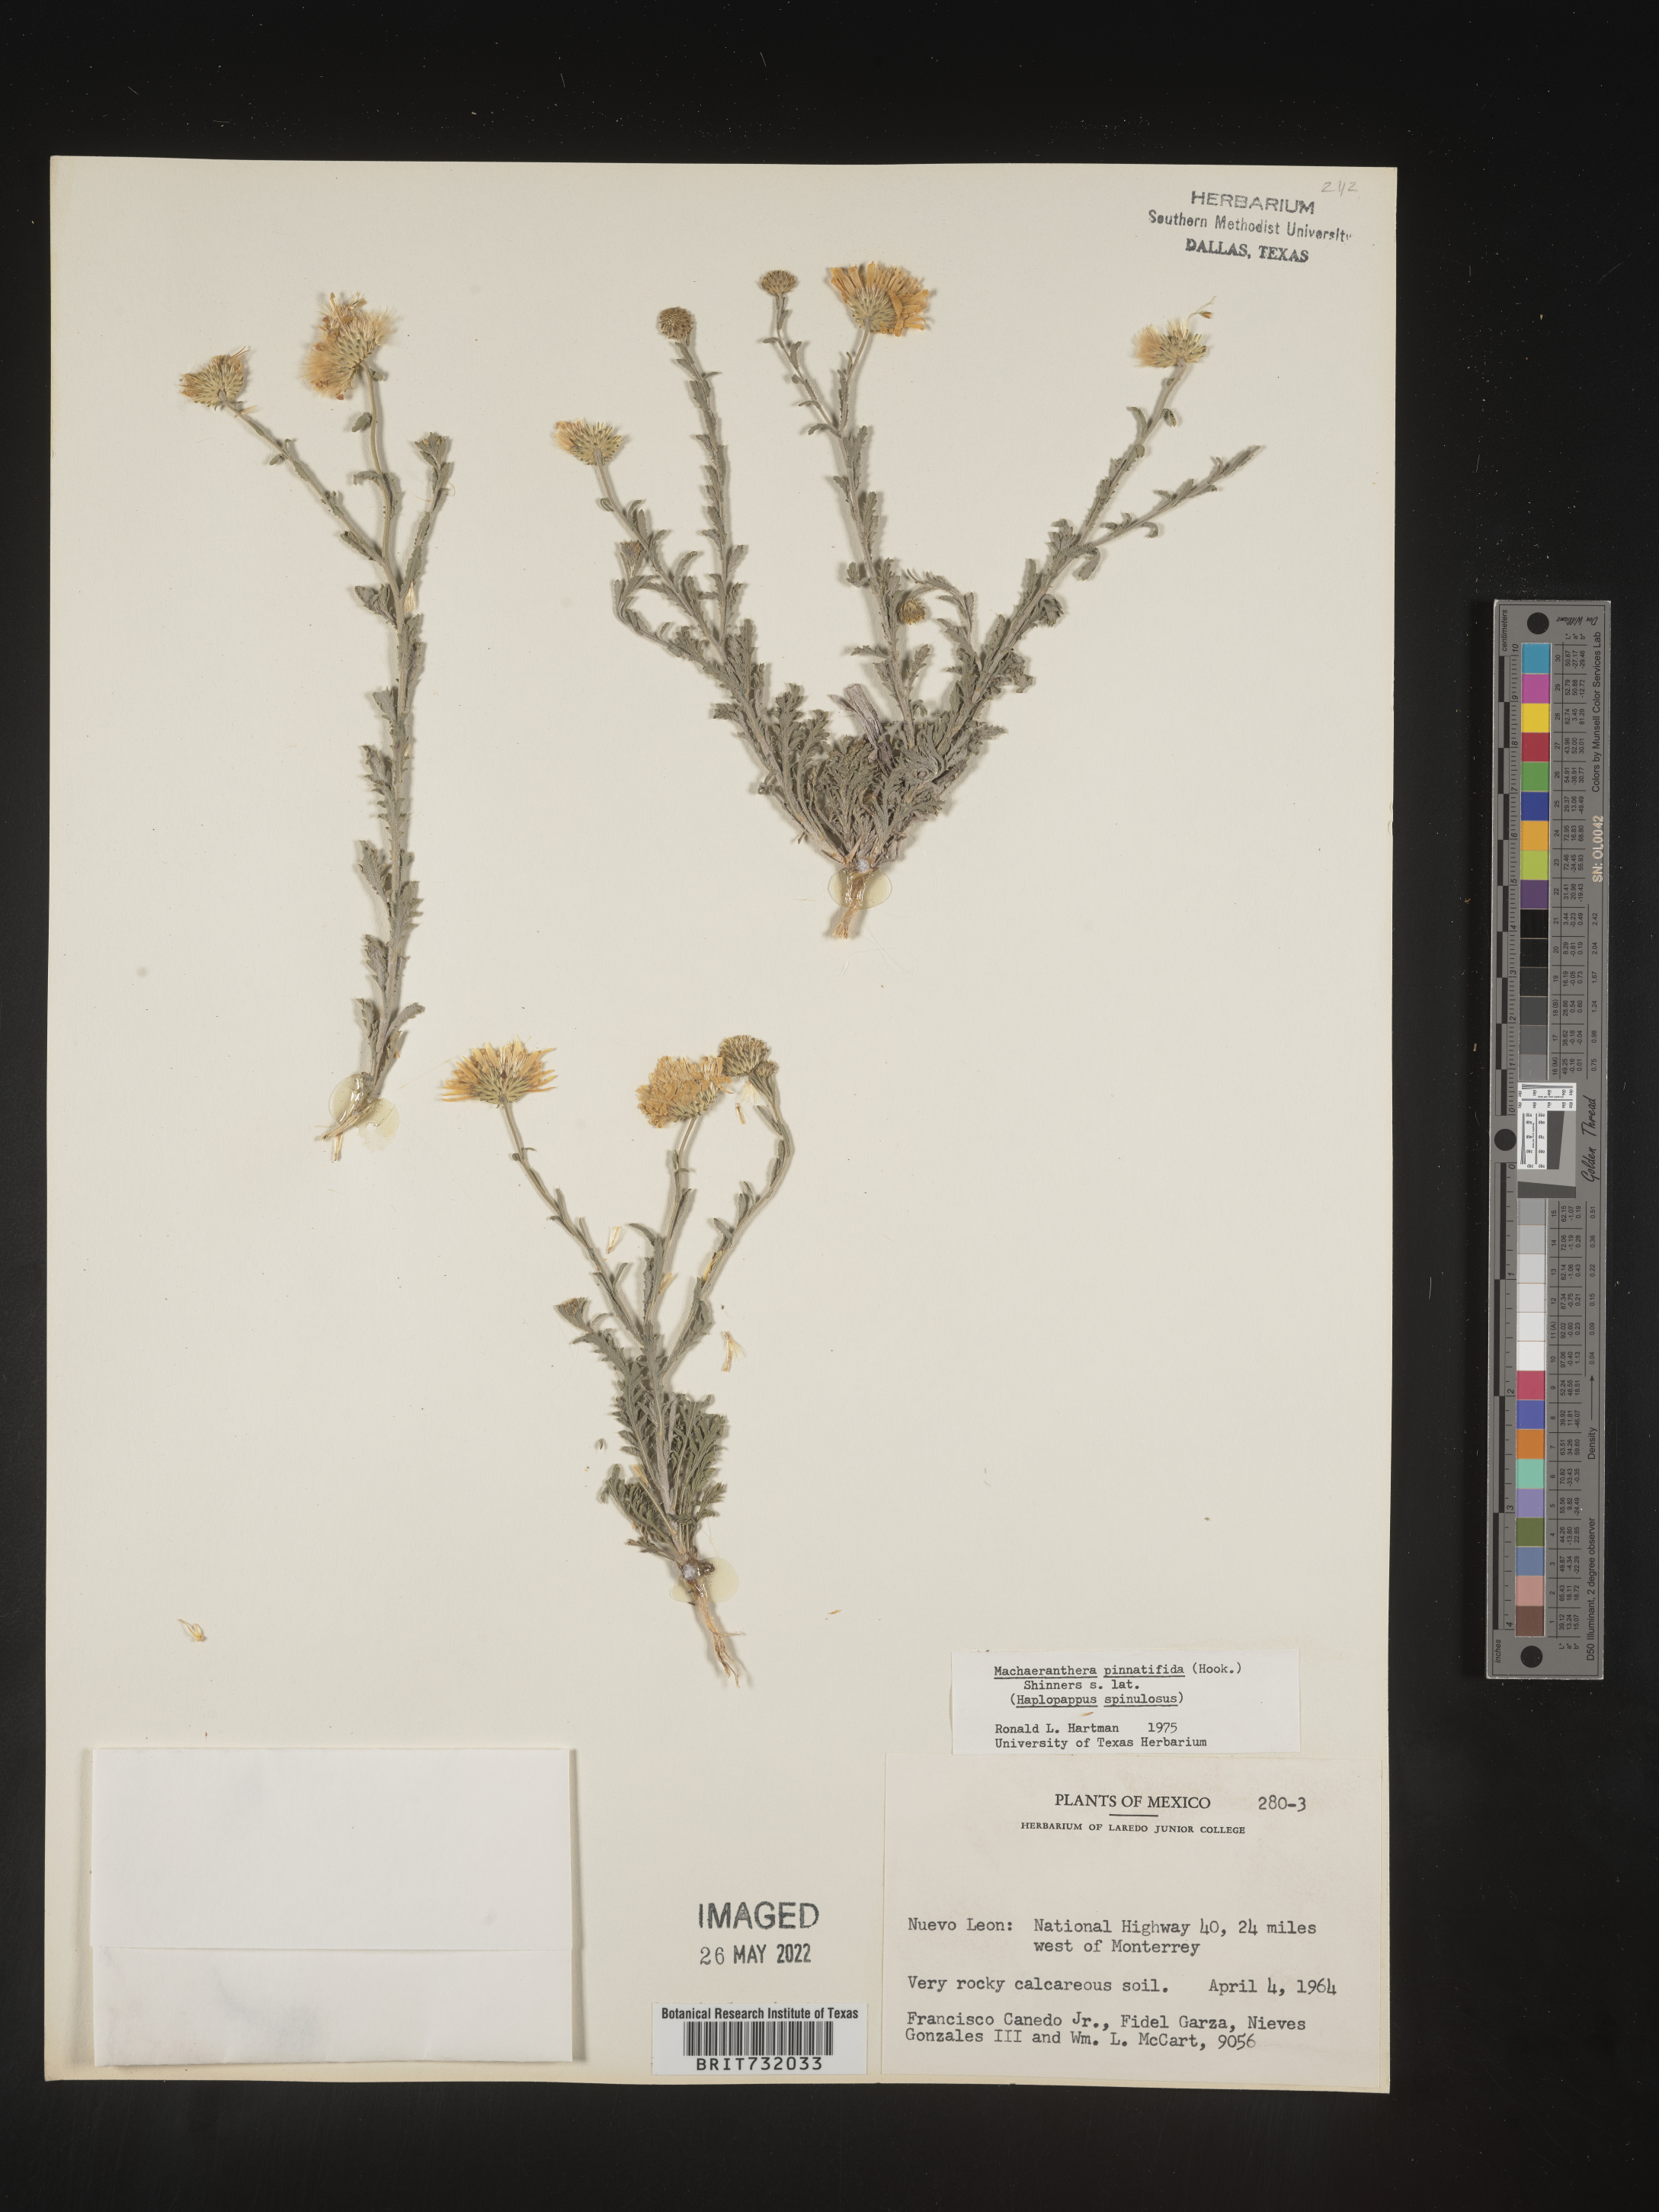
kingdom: Plantae
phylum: Tracheophyta
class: Magnoliopsida
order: Asterales
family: Asteraceae
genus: Xanthisma
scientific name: Xanthisma spinulosum
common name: Spiny goldenweed
